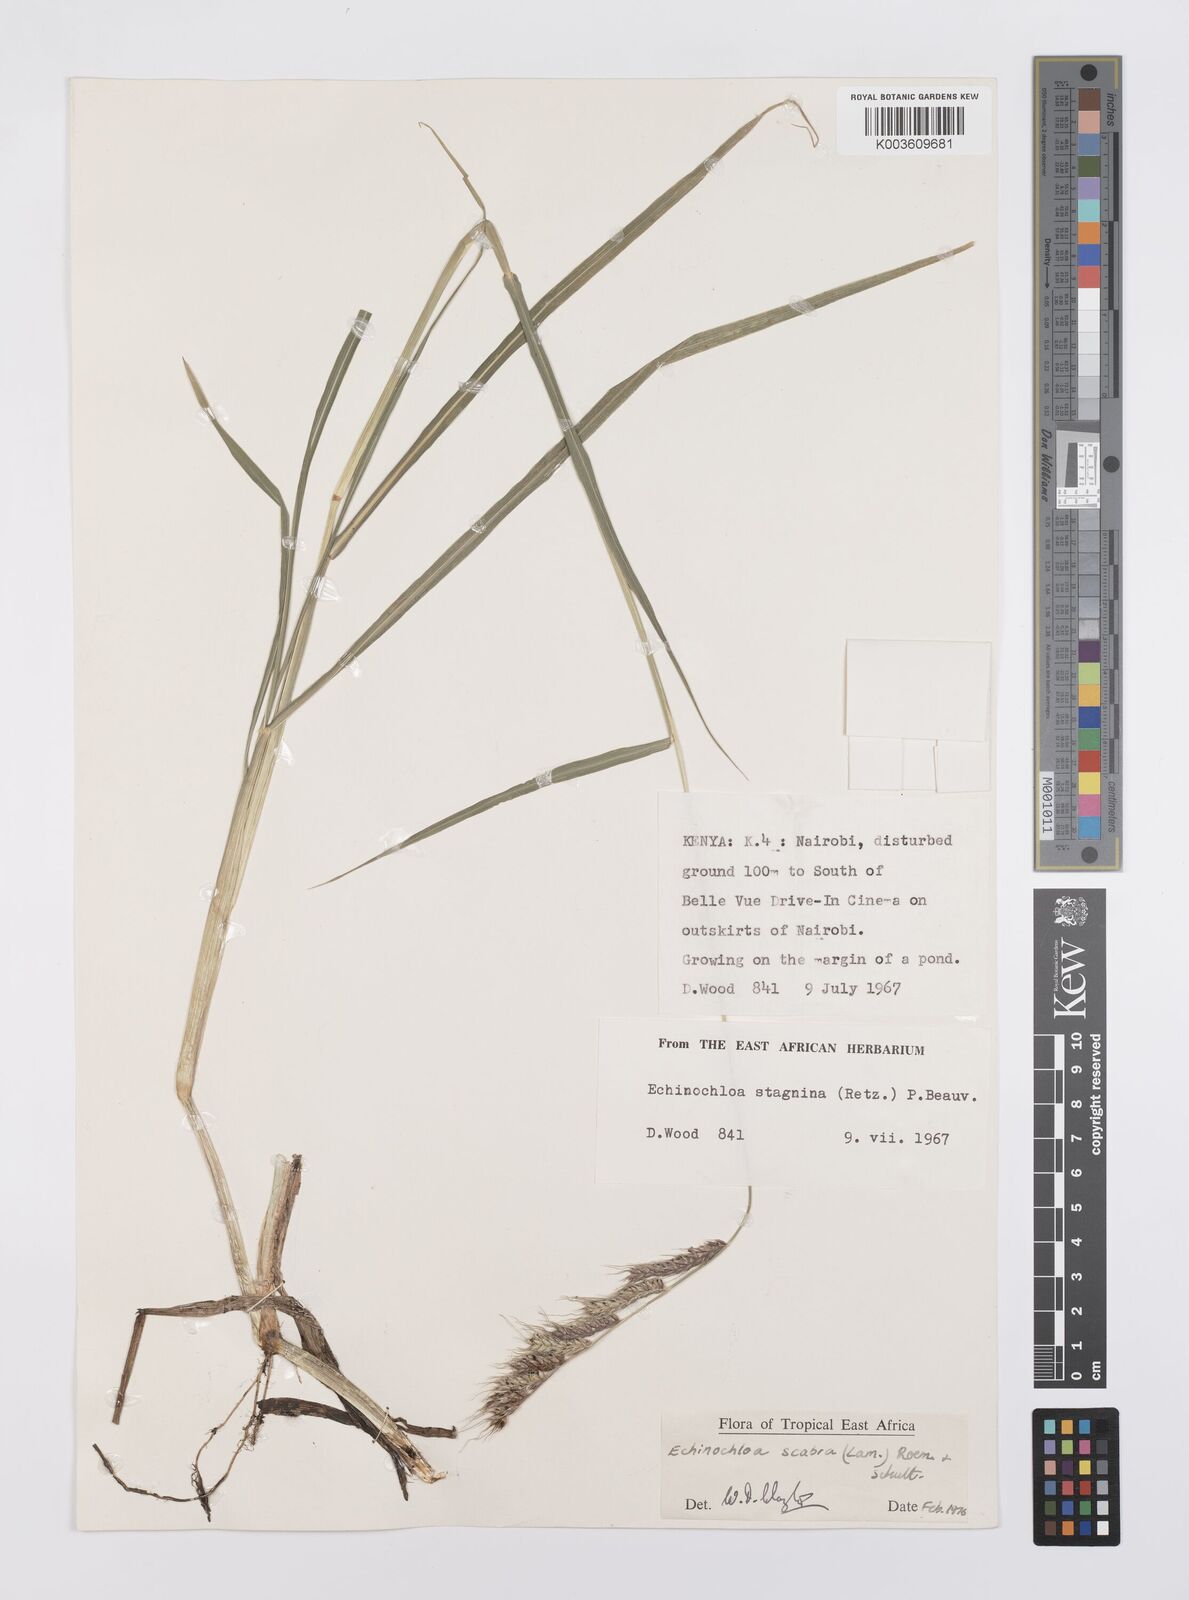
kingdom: Plantae
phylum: Tracheophyta
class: Liliopsida
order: Poales
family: Poaceae
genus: Echinochloa
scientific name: Echinochloa stagnina
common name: Burgu grass
